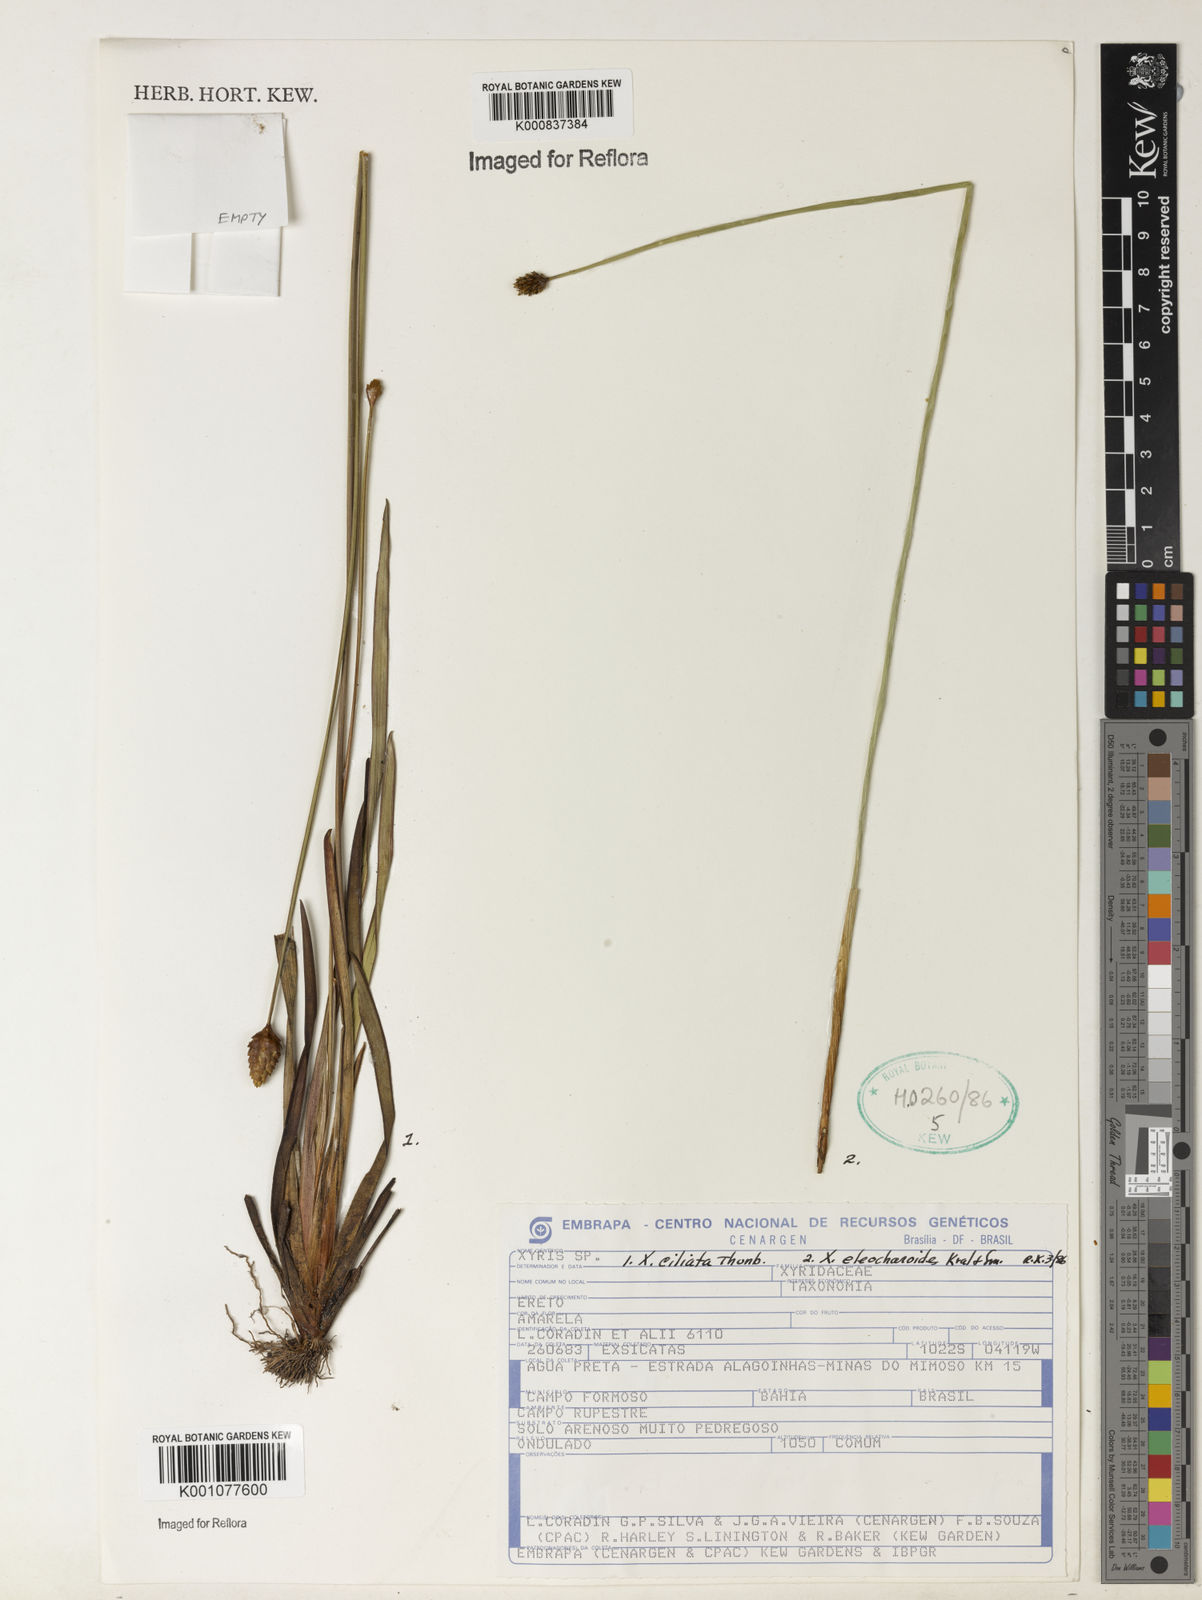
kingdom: Plantae
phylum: Tracheophyta
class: Liliopsida
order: Poales
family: Xyridaceae
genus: Xyris
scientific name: Xyris ciliata
